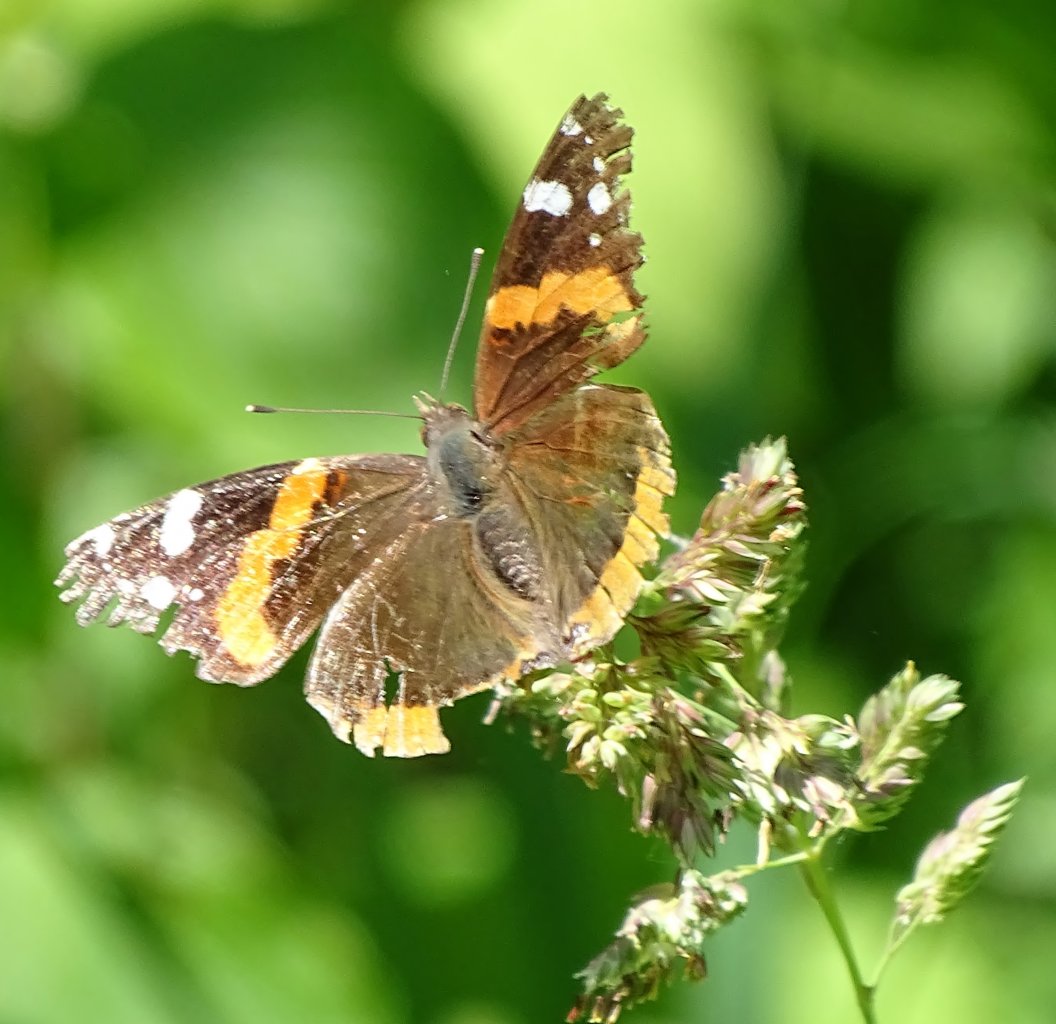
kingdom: Animalia
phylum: Arthropoda
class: Insecta
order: Lepidoptera
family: Nymphalidae
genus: Vanessa
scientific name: Vanessa atalanta
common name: Red Admiral
